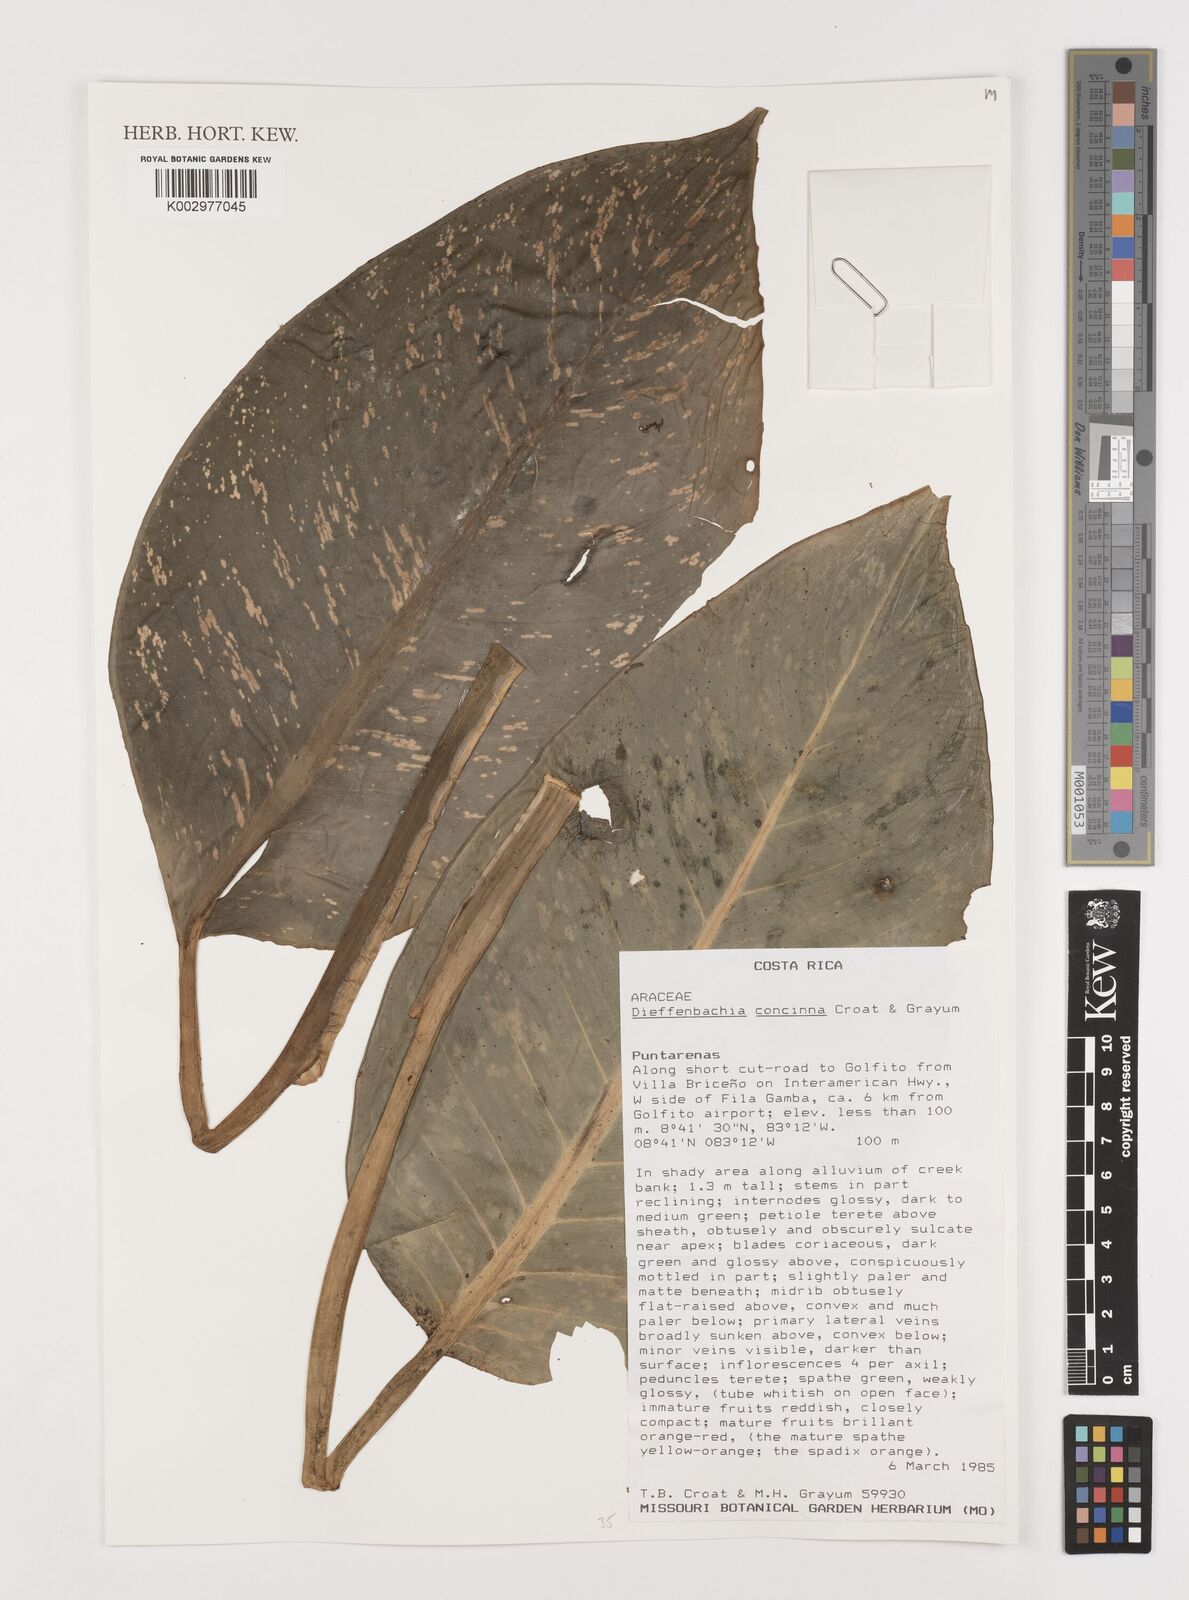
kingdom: Plantae
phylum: Tracheophyta
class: Liliopsida
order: Alismatales
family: Araceae
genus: Dieffenbachia
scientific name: Dieffenbachia concinna
